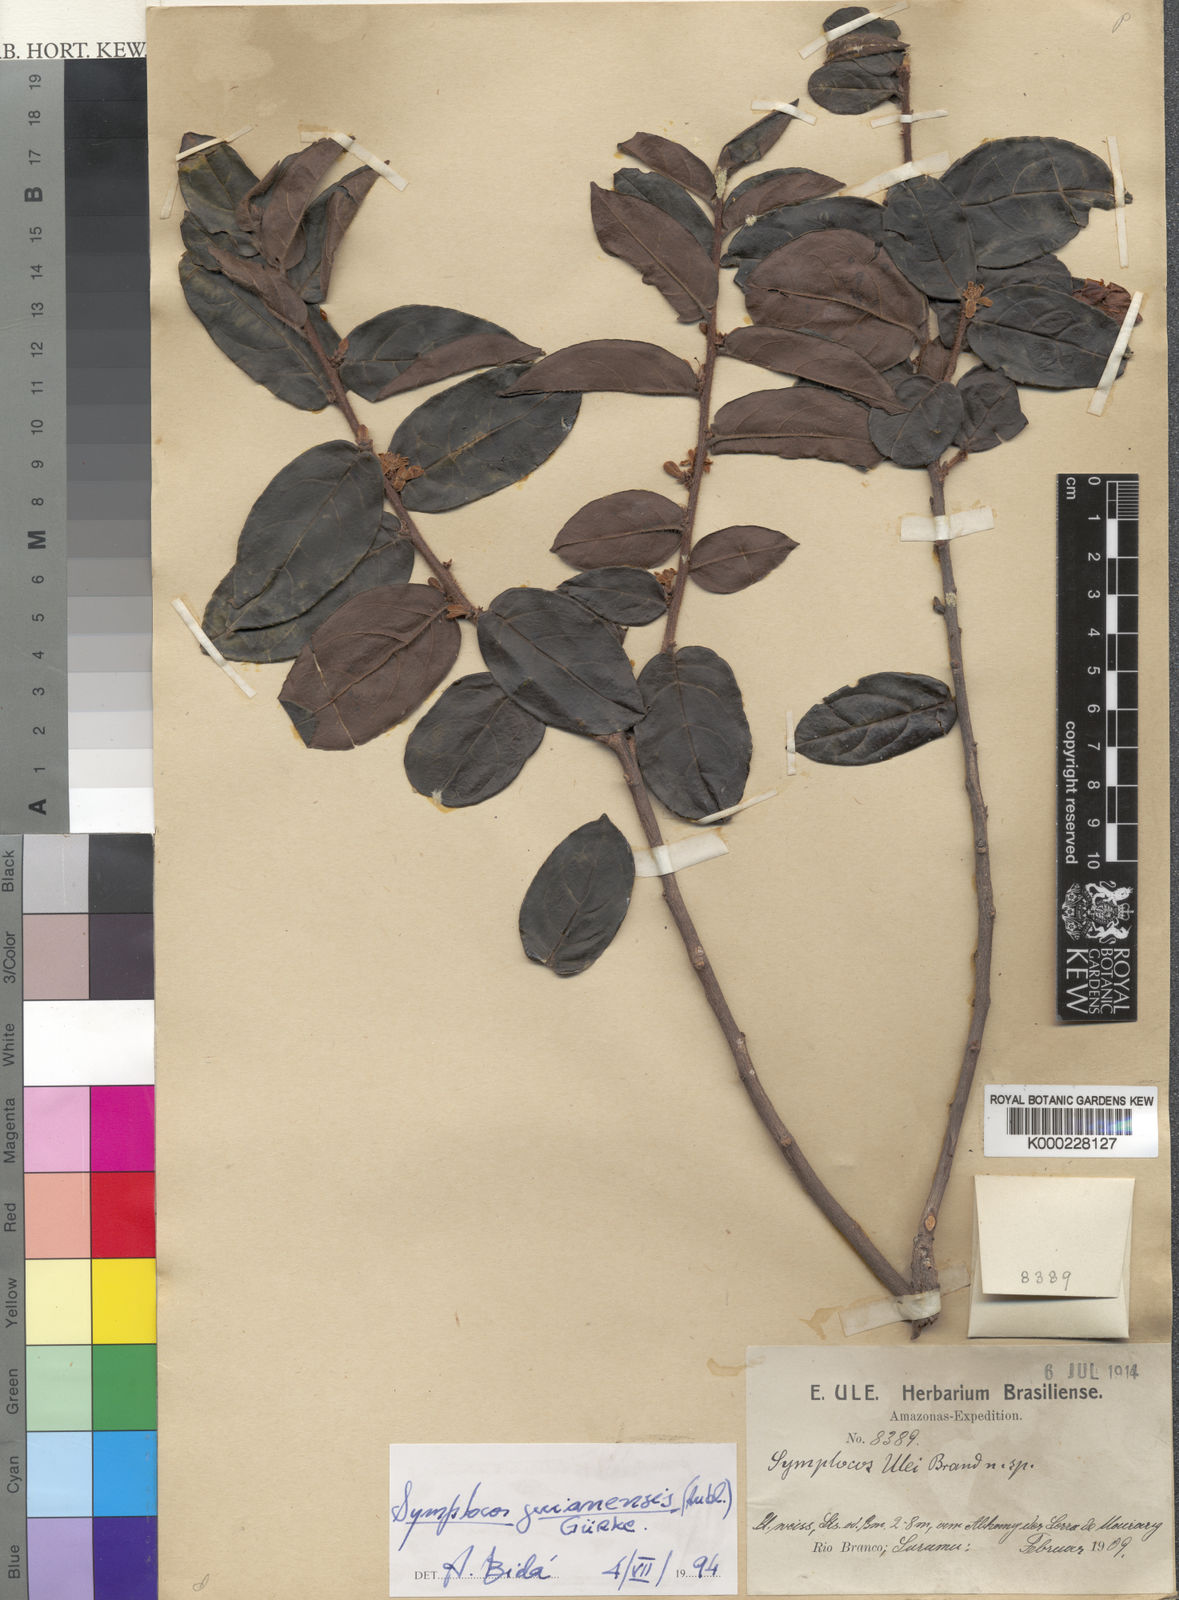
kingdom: Plantae
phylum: Tracheophyta
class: Magnoliopsida
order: Ericales
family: Symplocaceae
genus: Symplocos
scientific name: Symplocos
